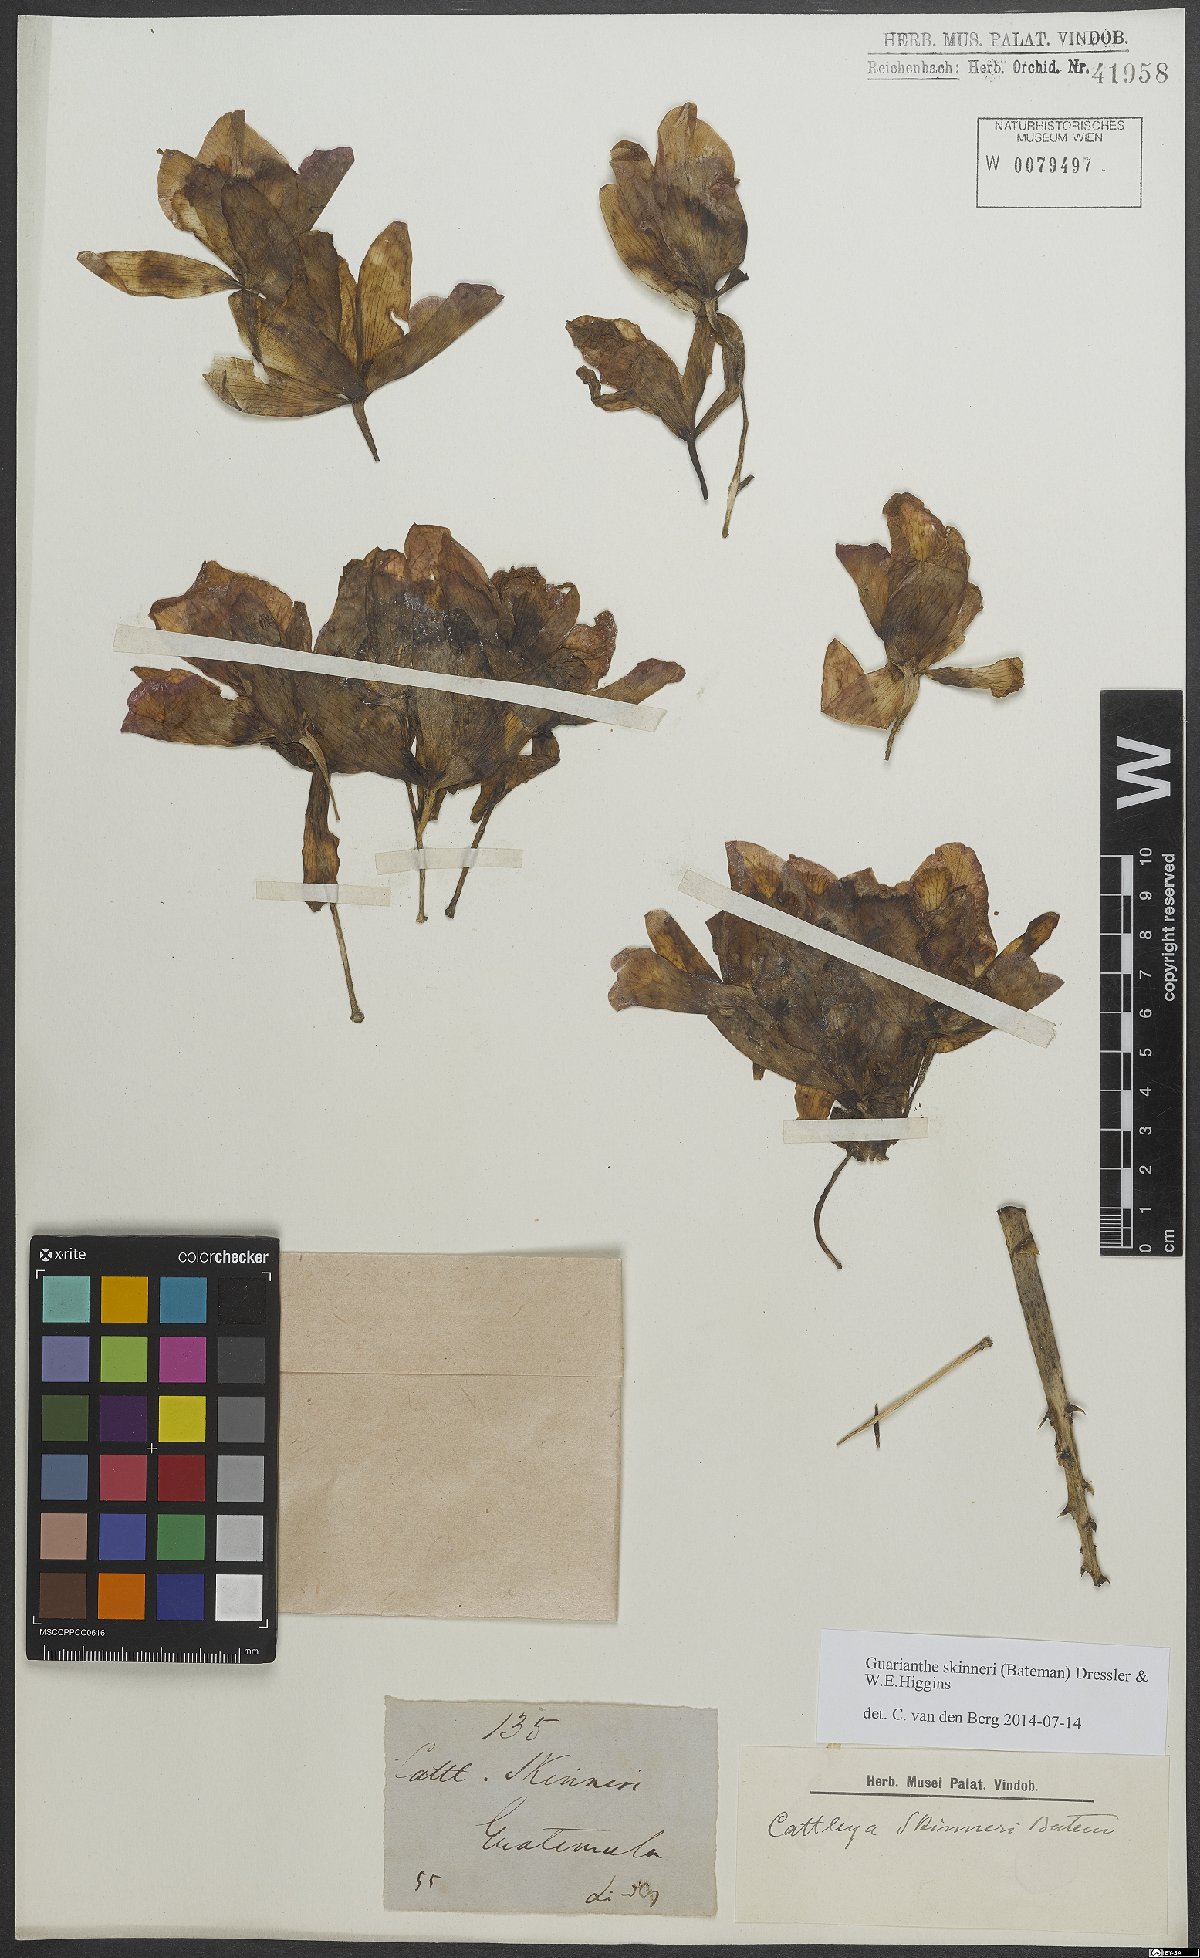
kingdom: Plantae
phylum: Tracheophyta
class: Liliopsida
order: Asparagales
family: Orchidaceae
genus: Guarianthe
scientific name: Guarianthe skinneri
